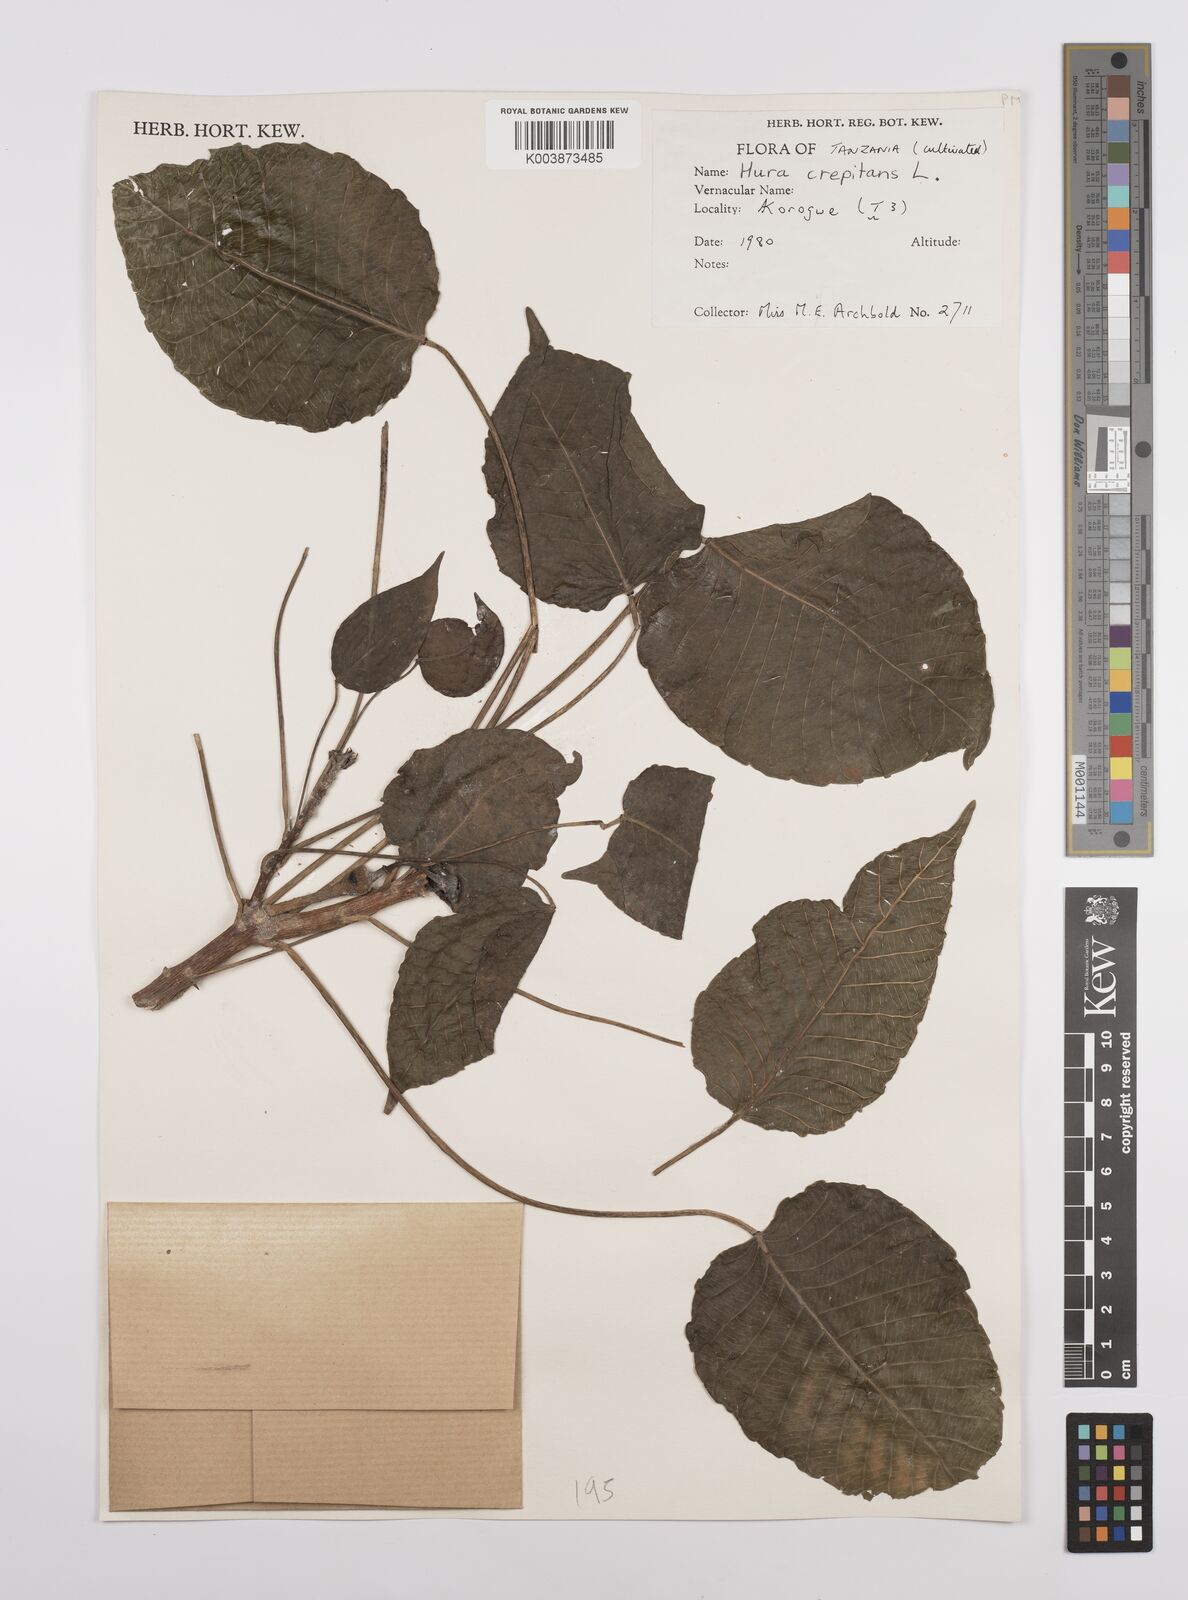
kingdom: Plantae
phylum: Tracheophyta
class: Magnoliopsida
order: Malpighiales
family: Euphorbiaceae
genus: Hura
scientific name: Hura crepitans
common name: Sandboxtree
